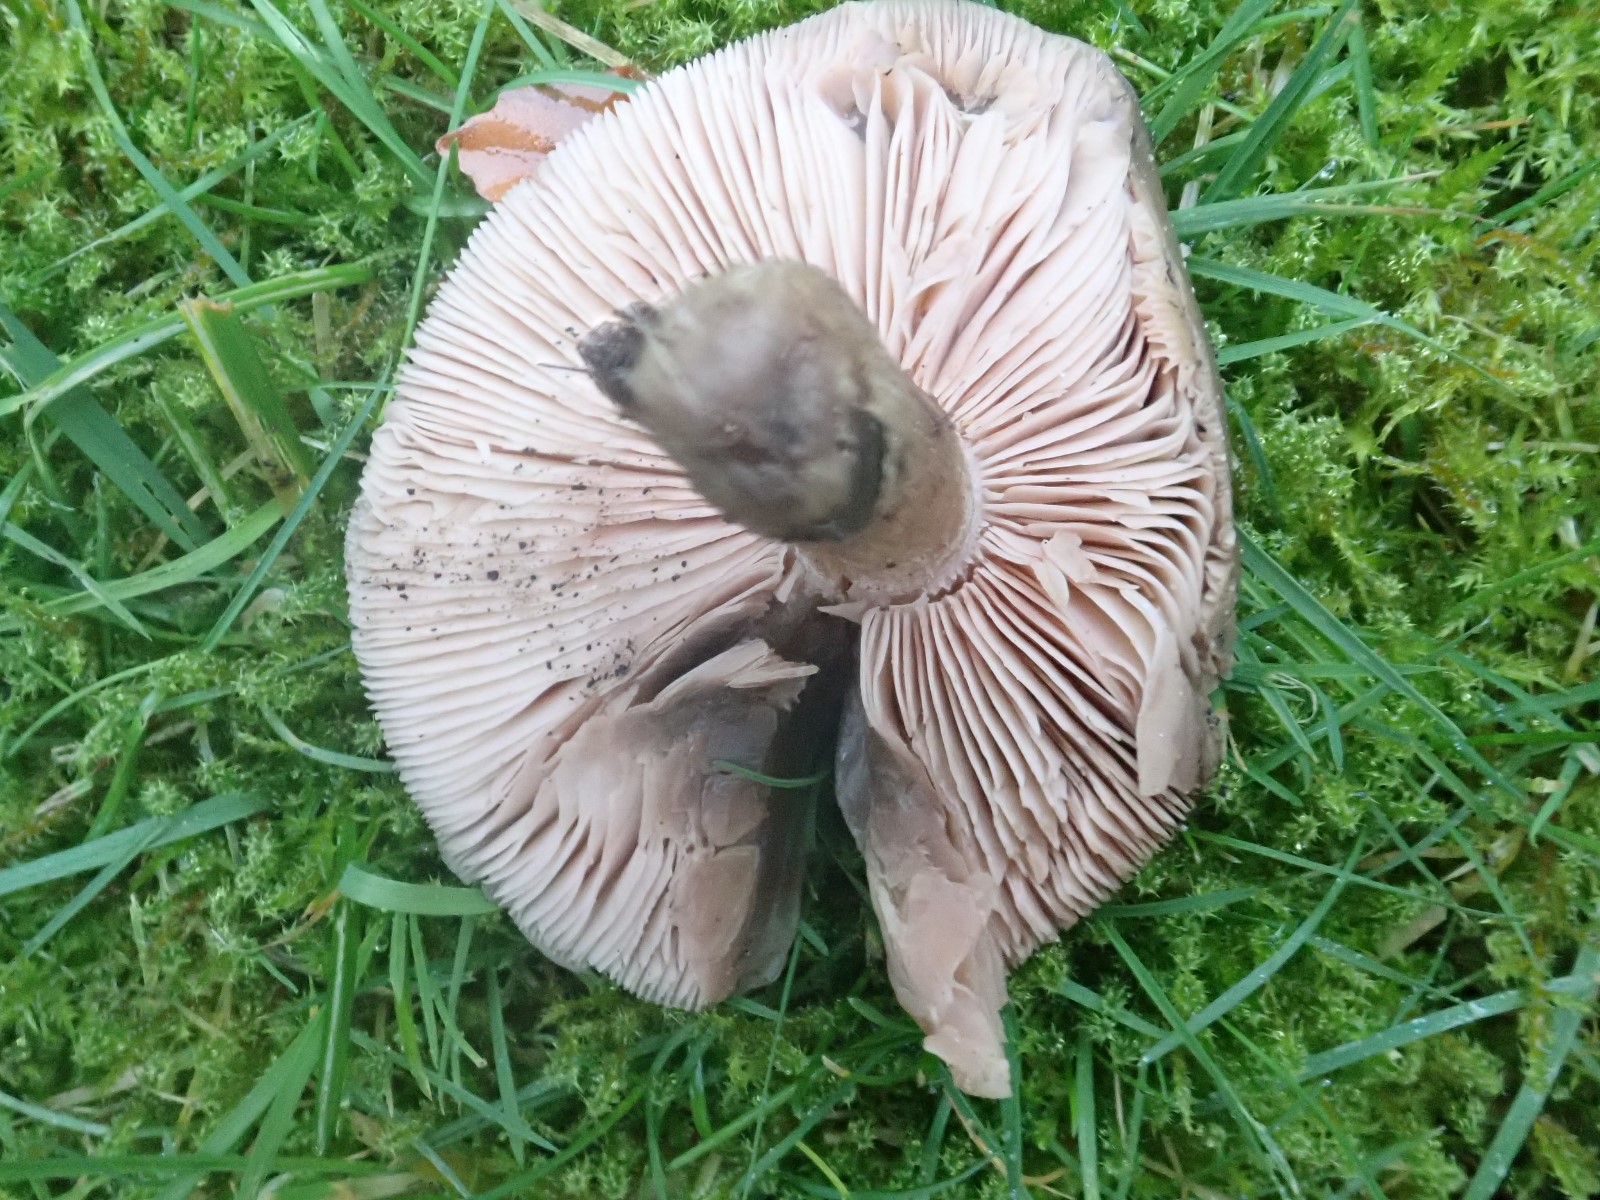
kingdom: Fungi
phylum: Basidiomycota
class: Agaricomycetes
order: Agaricales
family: Tricholomataceae
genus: Lepista
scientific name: Lepista personata
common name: bleg hekseringshat
